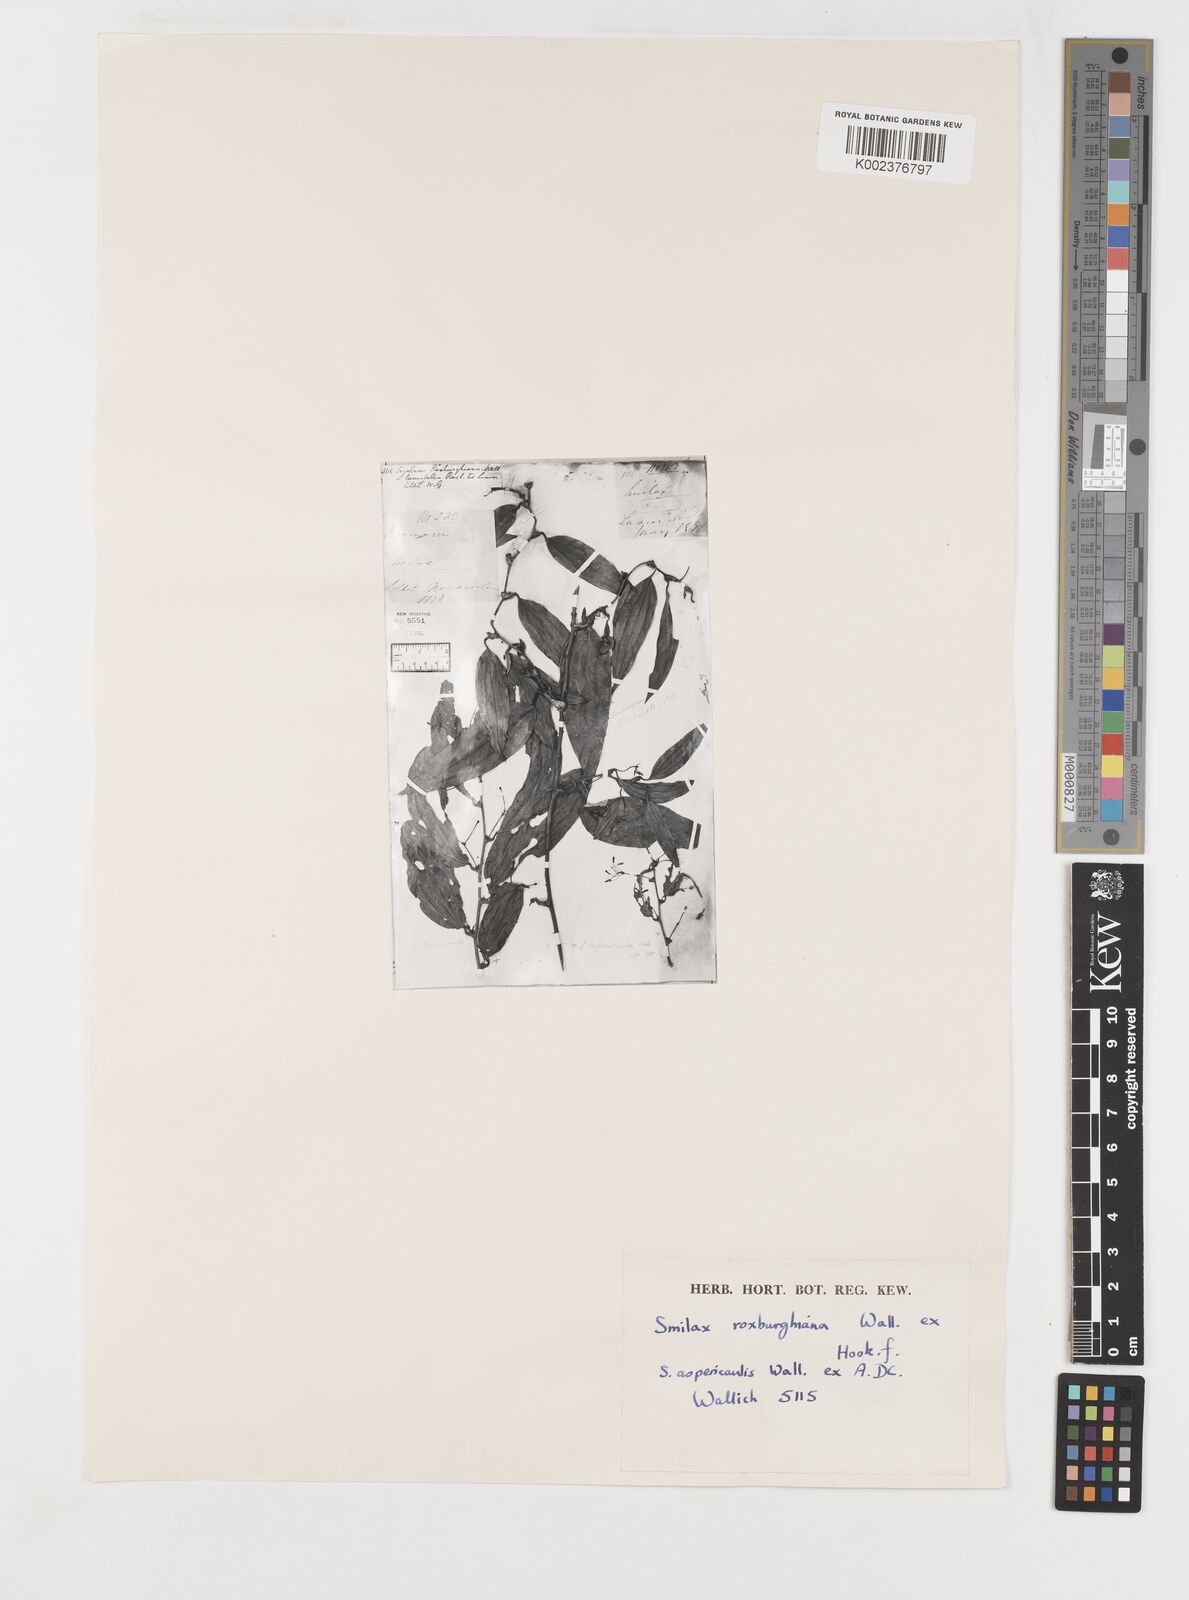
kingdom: Plantae
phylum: Tracheophyta
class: Liliopsida
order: Liliales
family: Smilacaceae
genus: Smilax
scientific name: Smilax megacarpa
